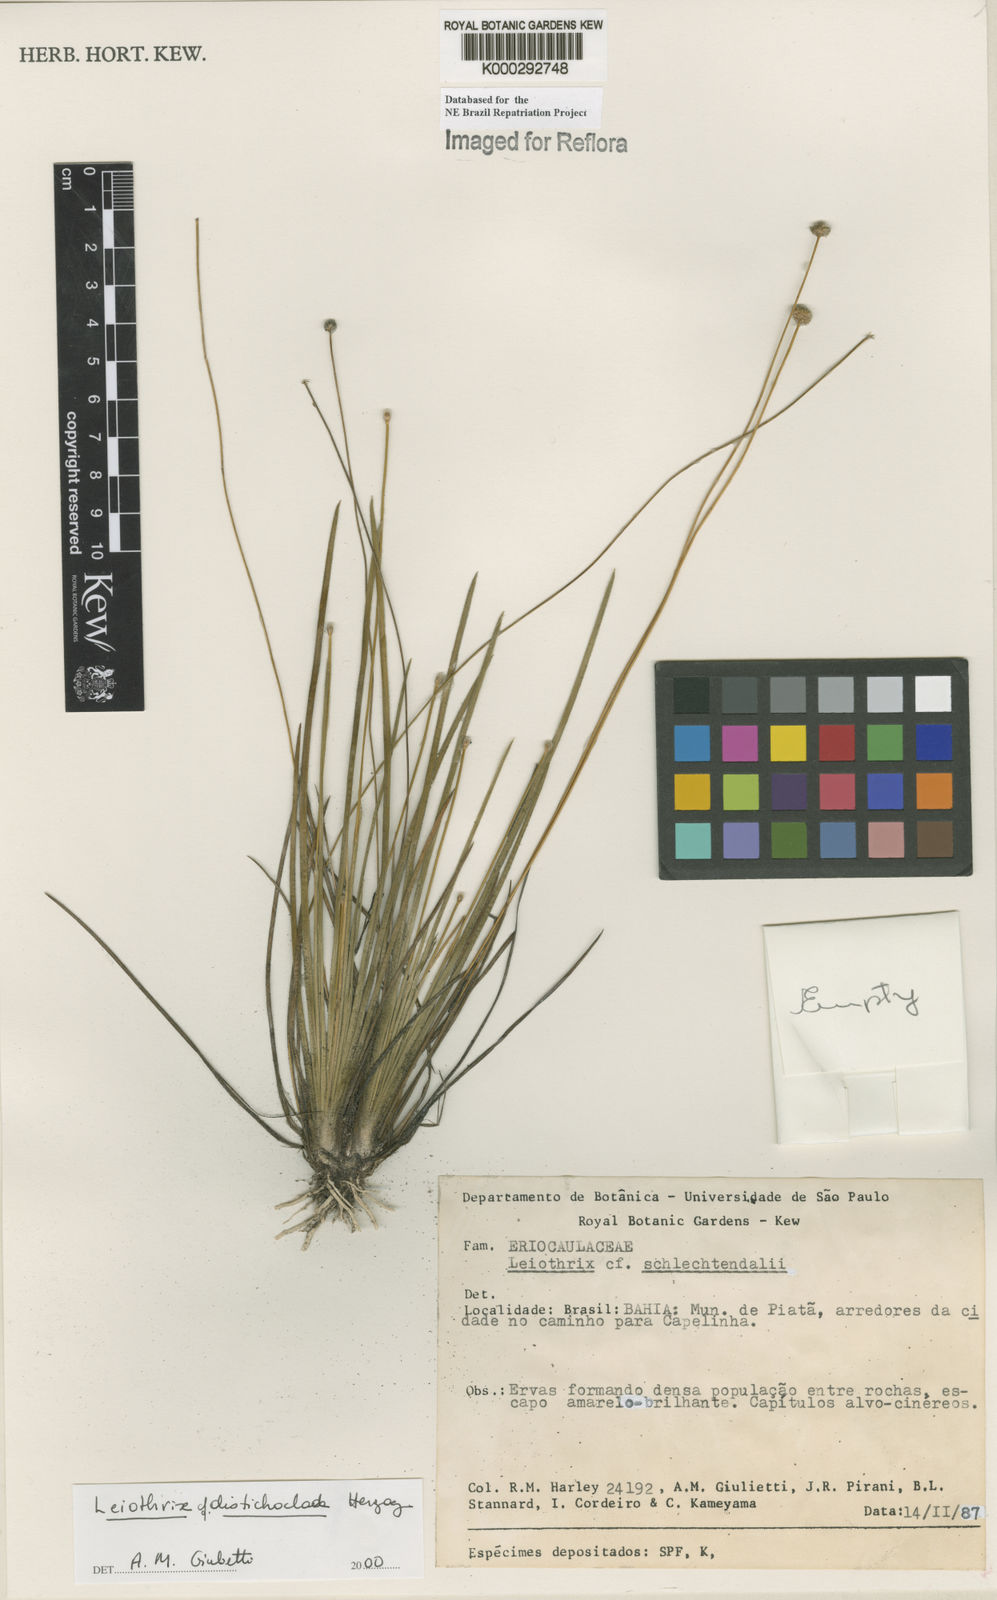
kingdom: Plantae
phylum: Tracheophyta
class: Liliopsida
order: Poales
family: Eriocaulaceae
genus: Leiothrix
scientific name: Leiothrix distichoclada
